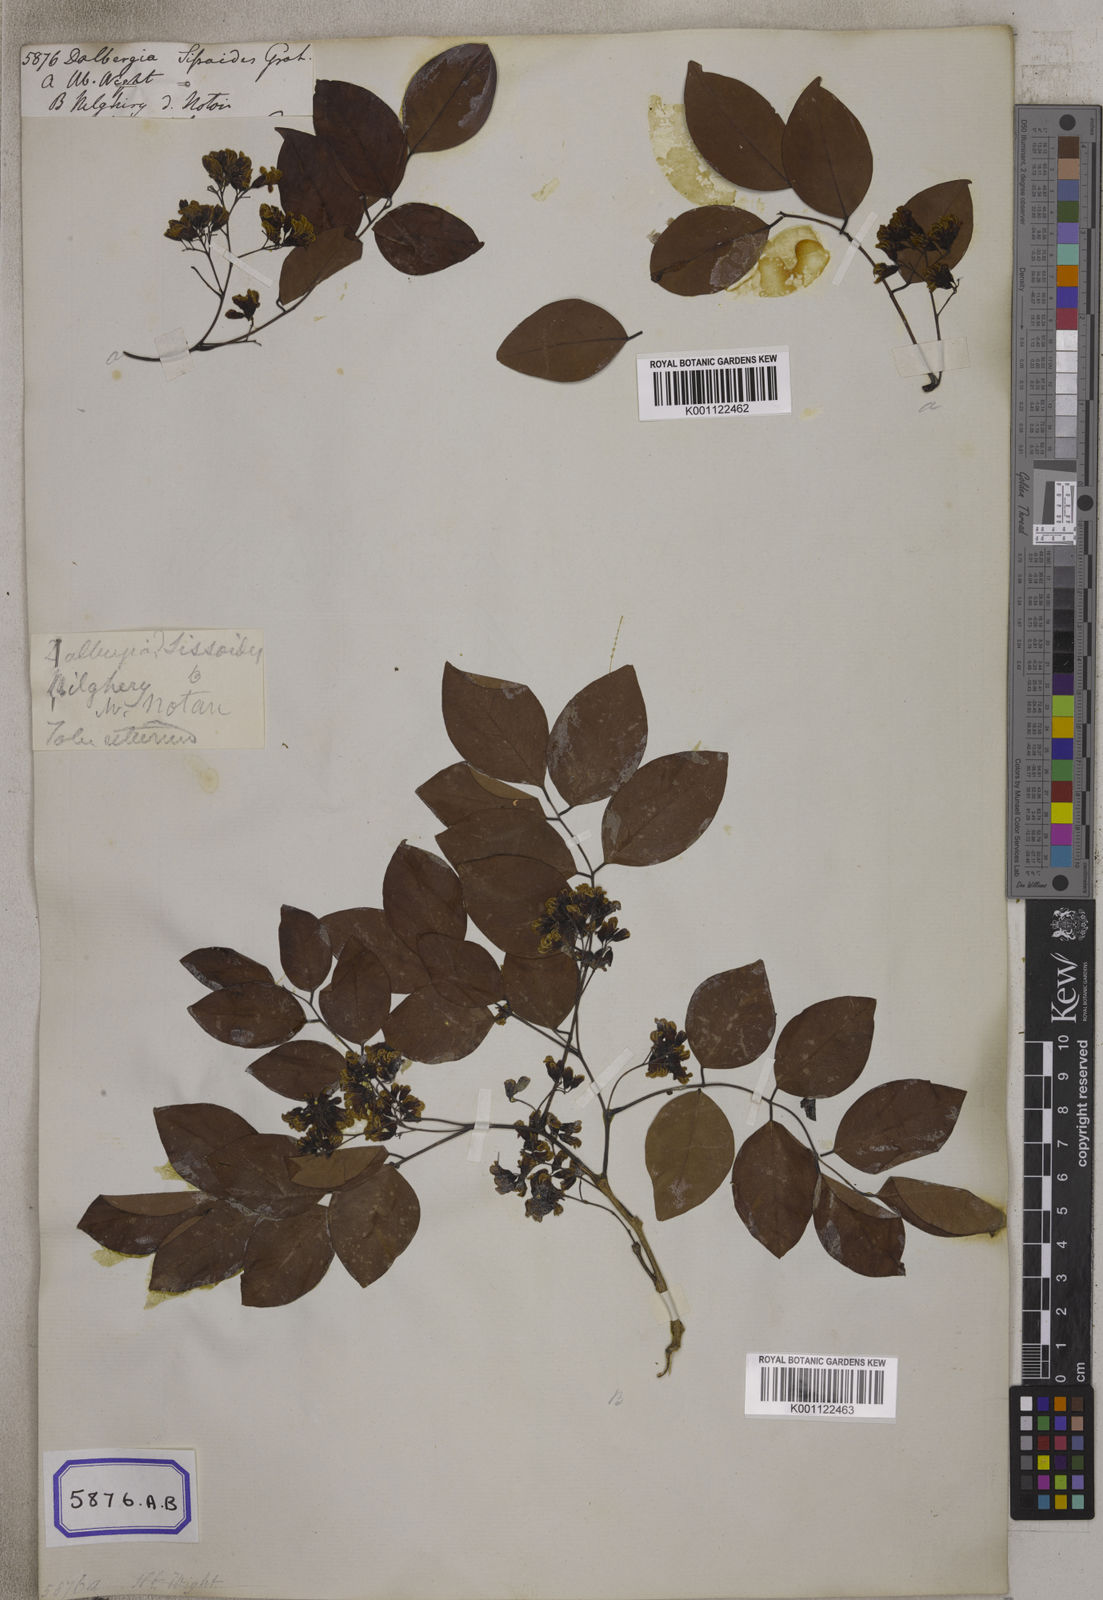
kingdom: Plantae
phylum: Tracheophyta
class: Magnoliopsida
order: Fabales
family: Fabaceae
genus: Dalbergia
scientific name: Dalbergia
